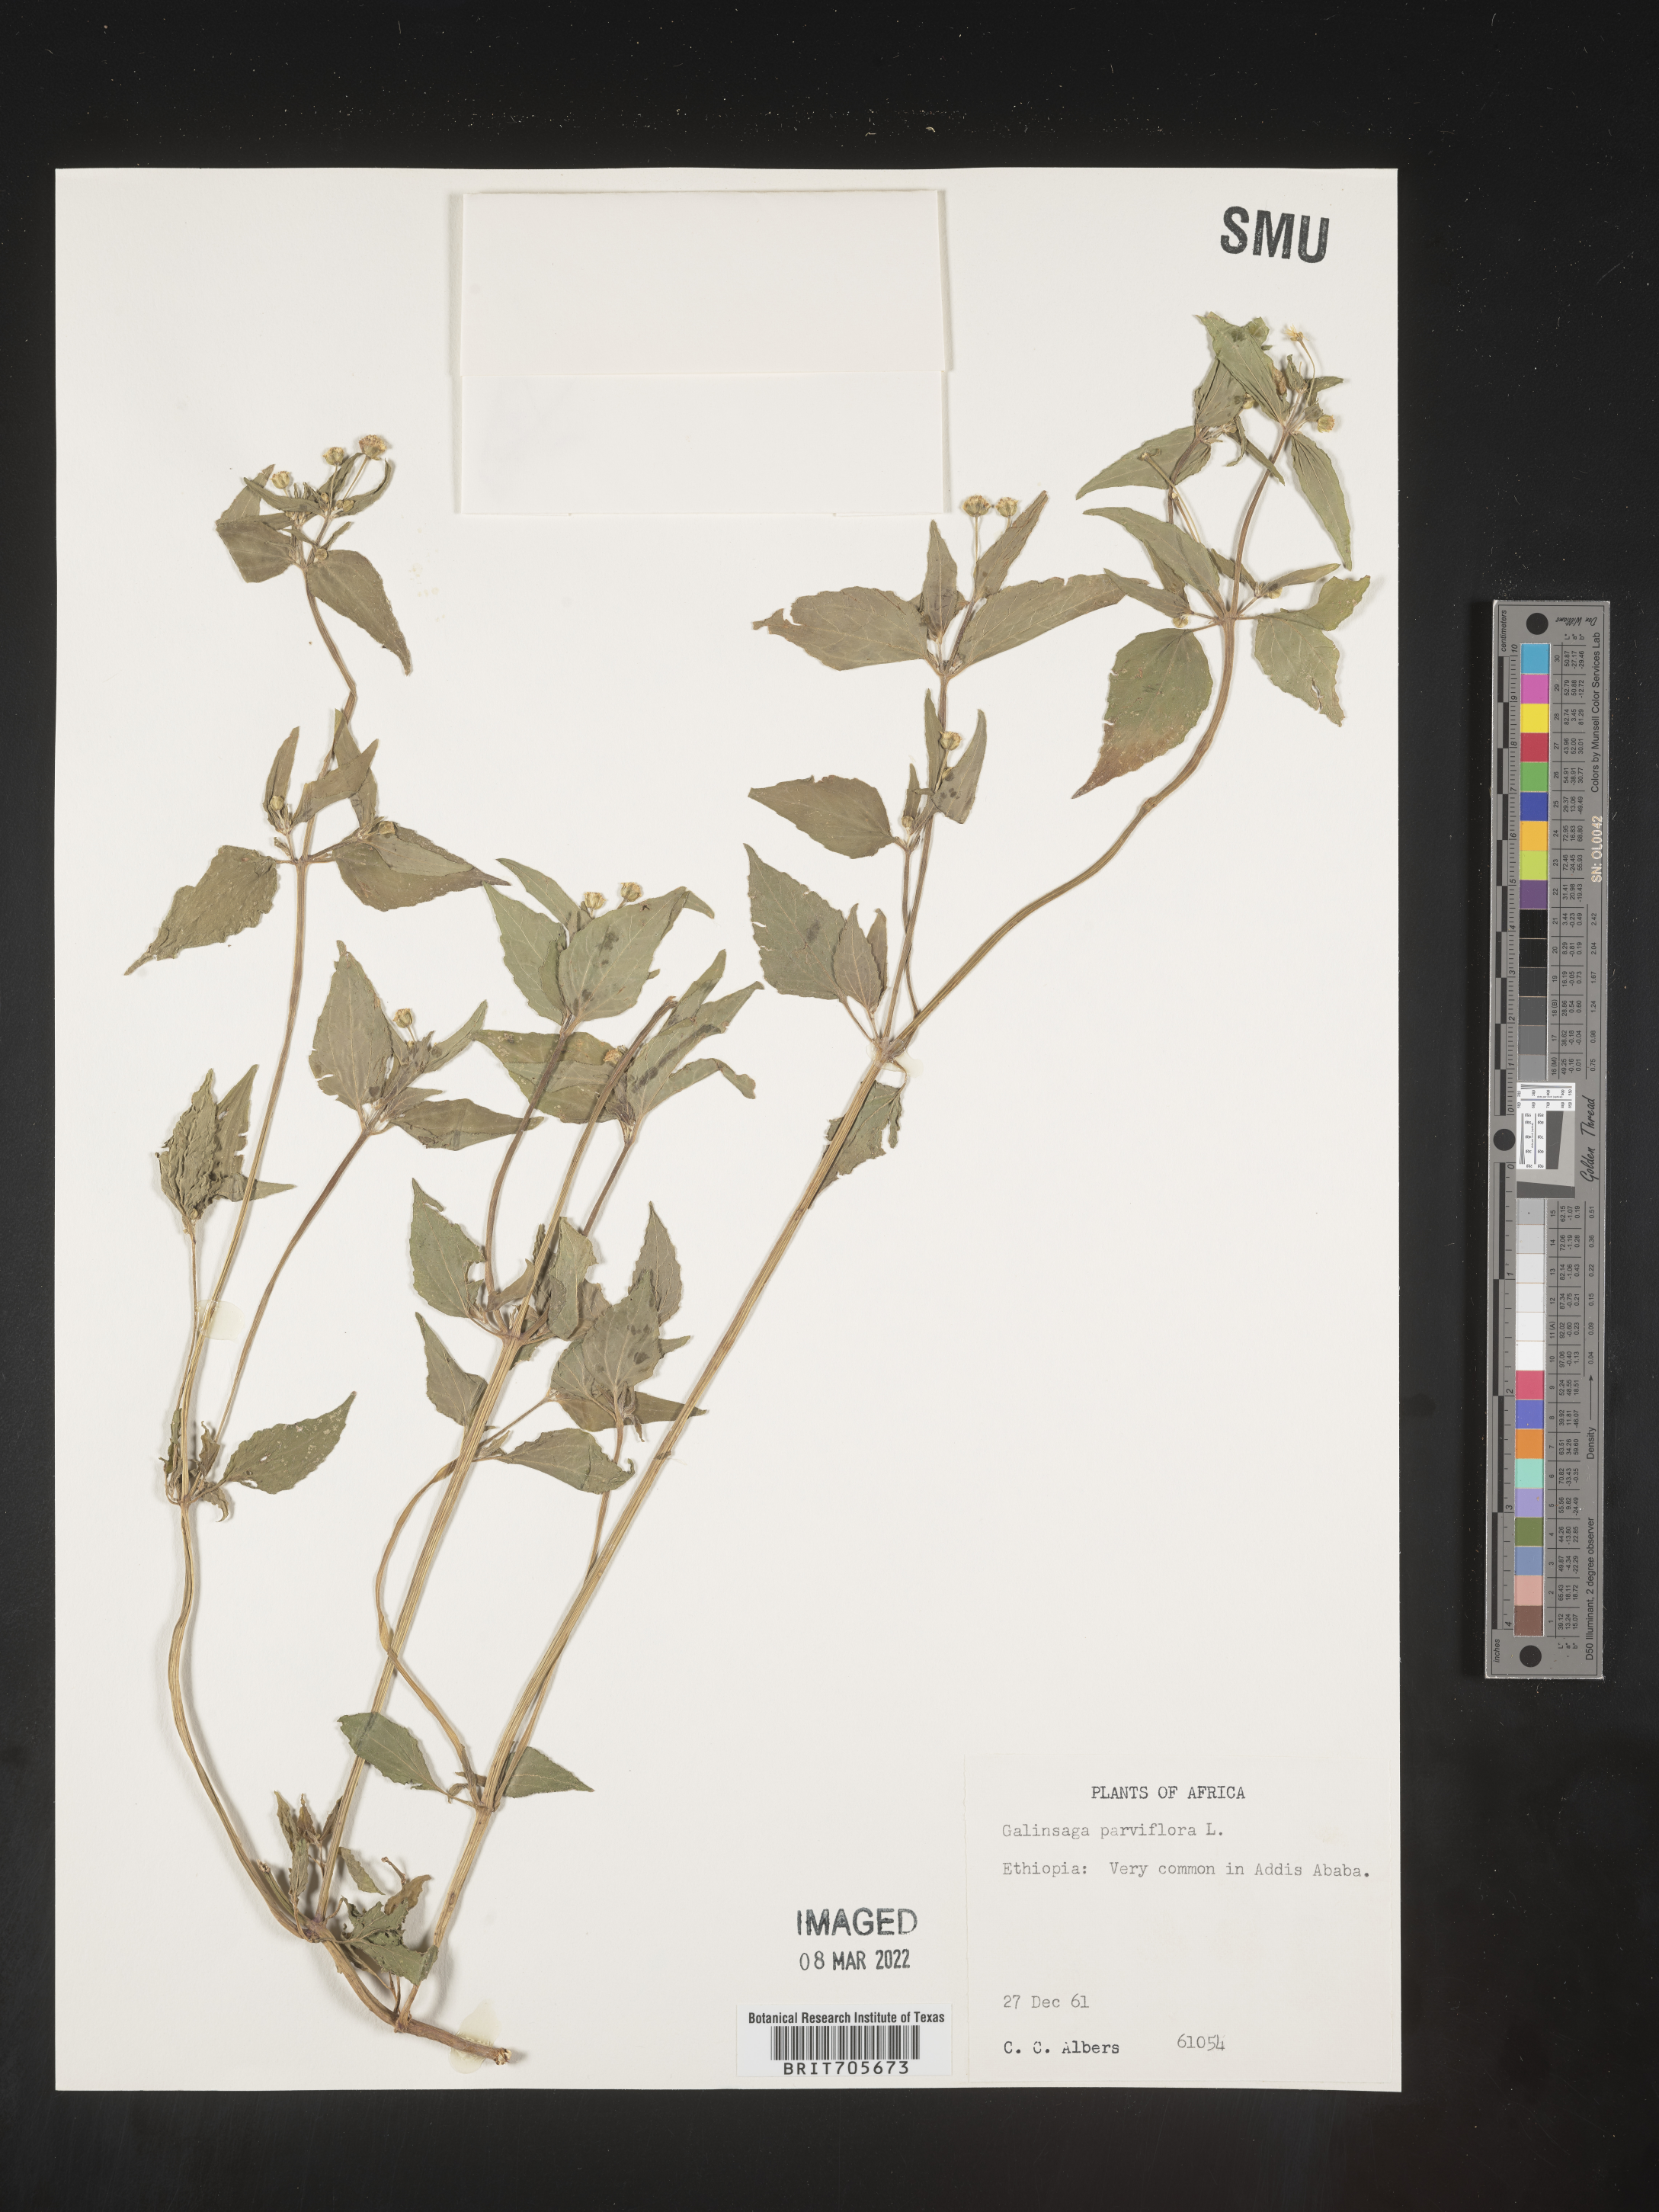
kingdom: Plantae
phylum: Tracheophyta
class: Magnoliopsida
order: Asterales
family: Asteraceae
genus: Galinsoga
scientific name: Galinsoga
